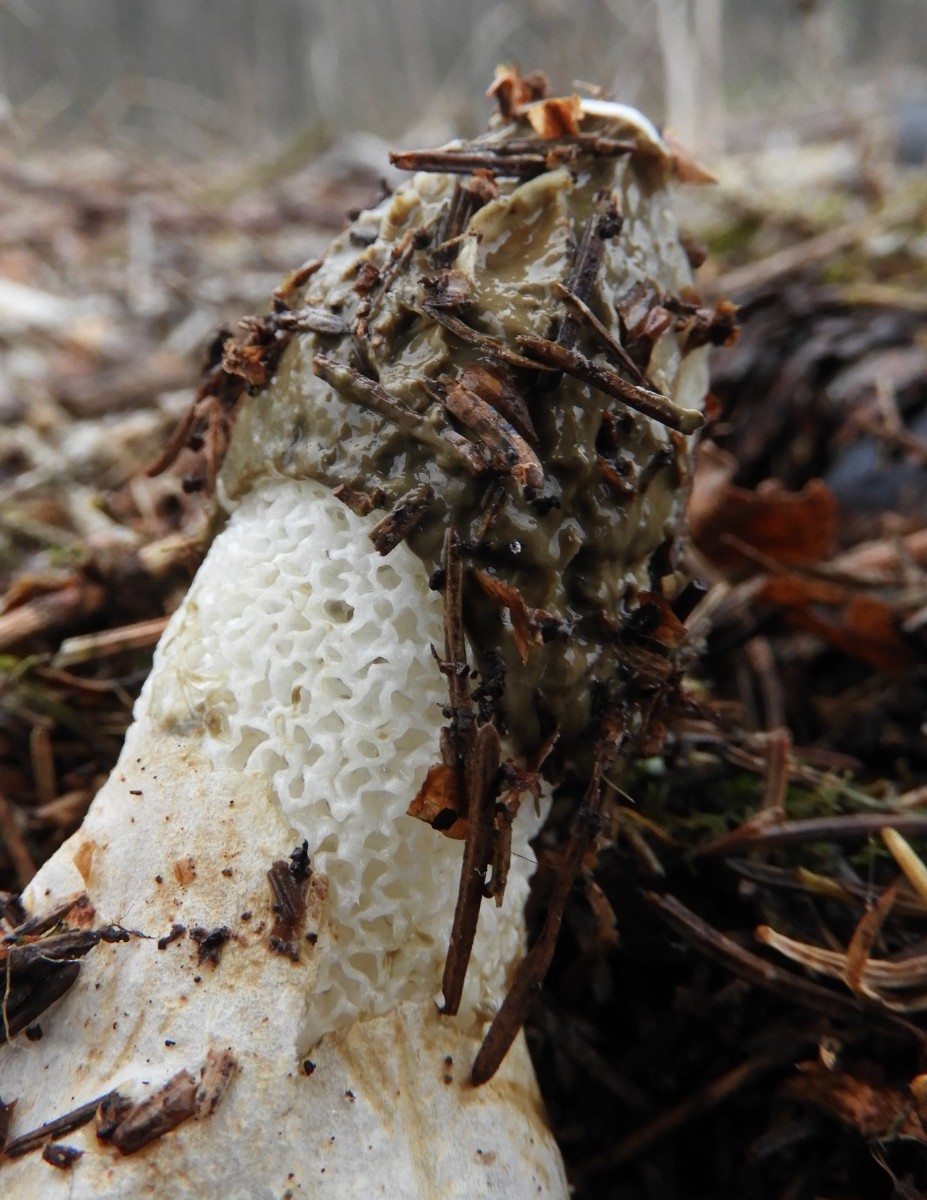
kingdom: Fungi
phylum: Basidiomycota
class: Agaricomycetes
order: Phallales
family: Phallaceae
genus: Phallus
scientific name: Phallus impudicus
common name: almindelig stinksvamp
